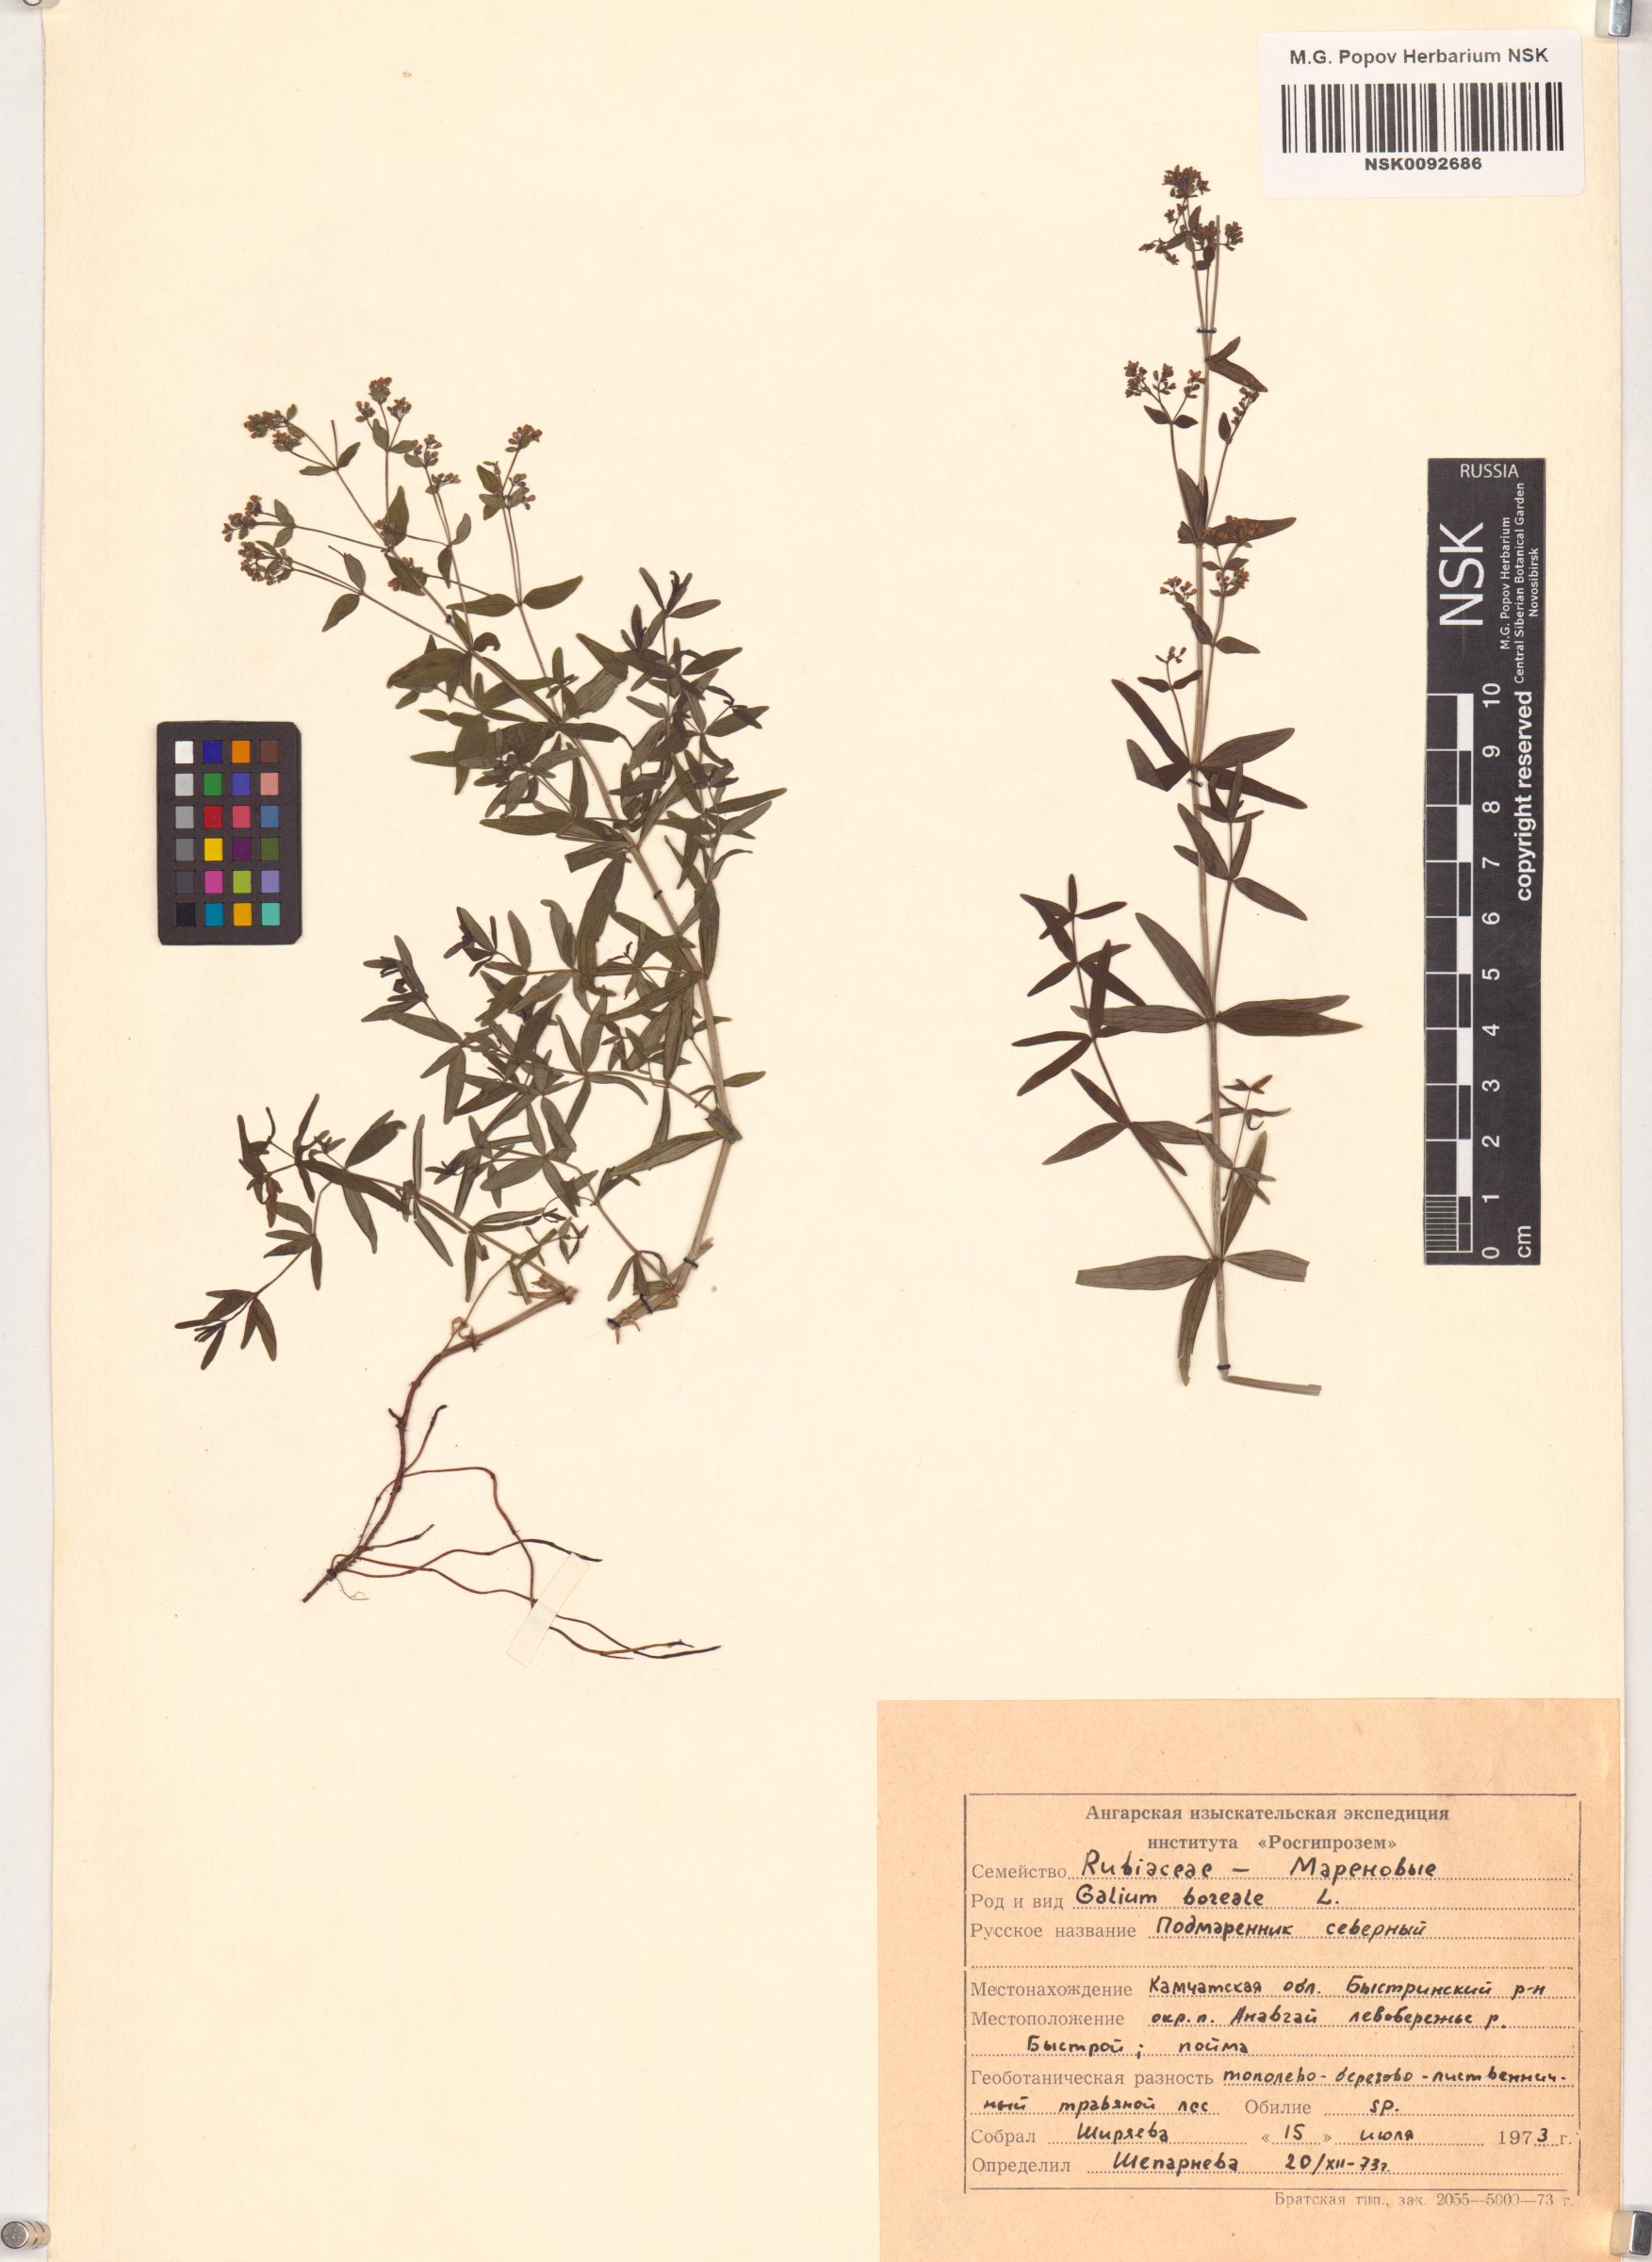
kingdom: Plantae
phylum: Tracheophyta
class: Magnoliopsida
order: Gentianales
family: Rubiaceae
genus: Galium
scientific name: Galium boreale
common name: Northern bedstraw
